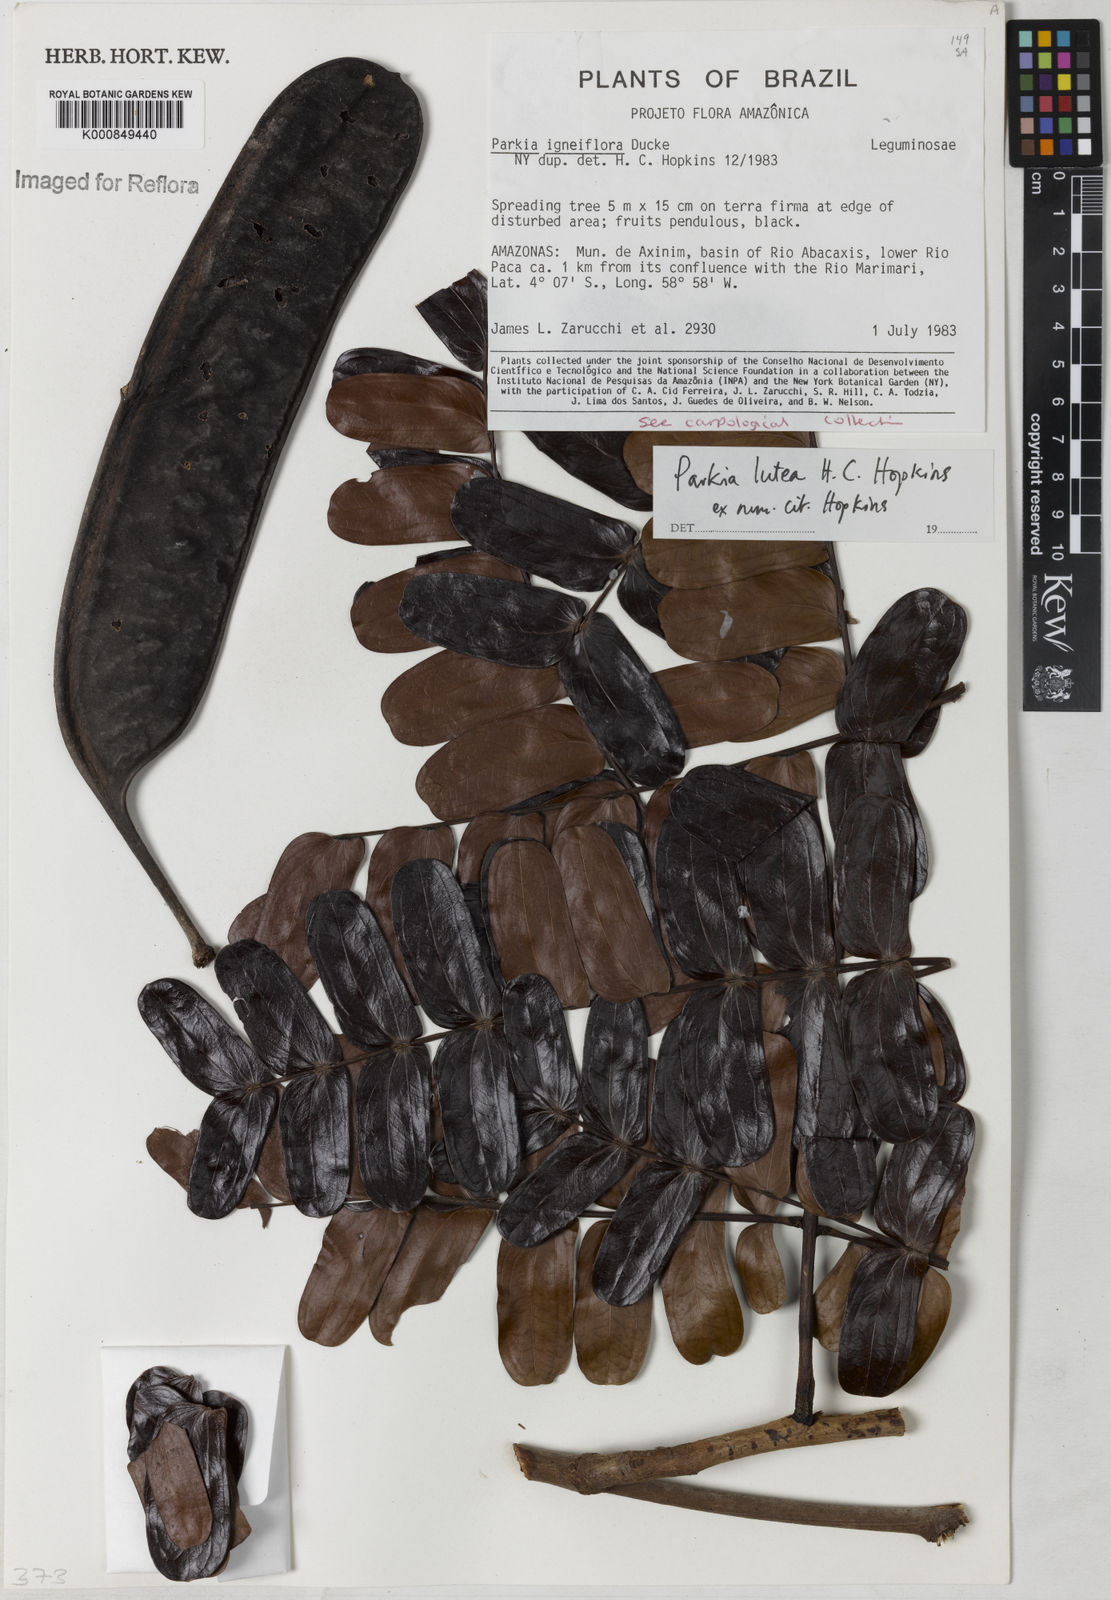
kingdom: Plantae
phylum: Tracheophyta
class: Magnoliopsida
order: Fabales
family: Fabaceae
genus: Parkia
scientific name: Parkia lutea
